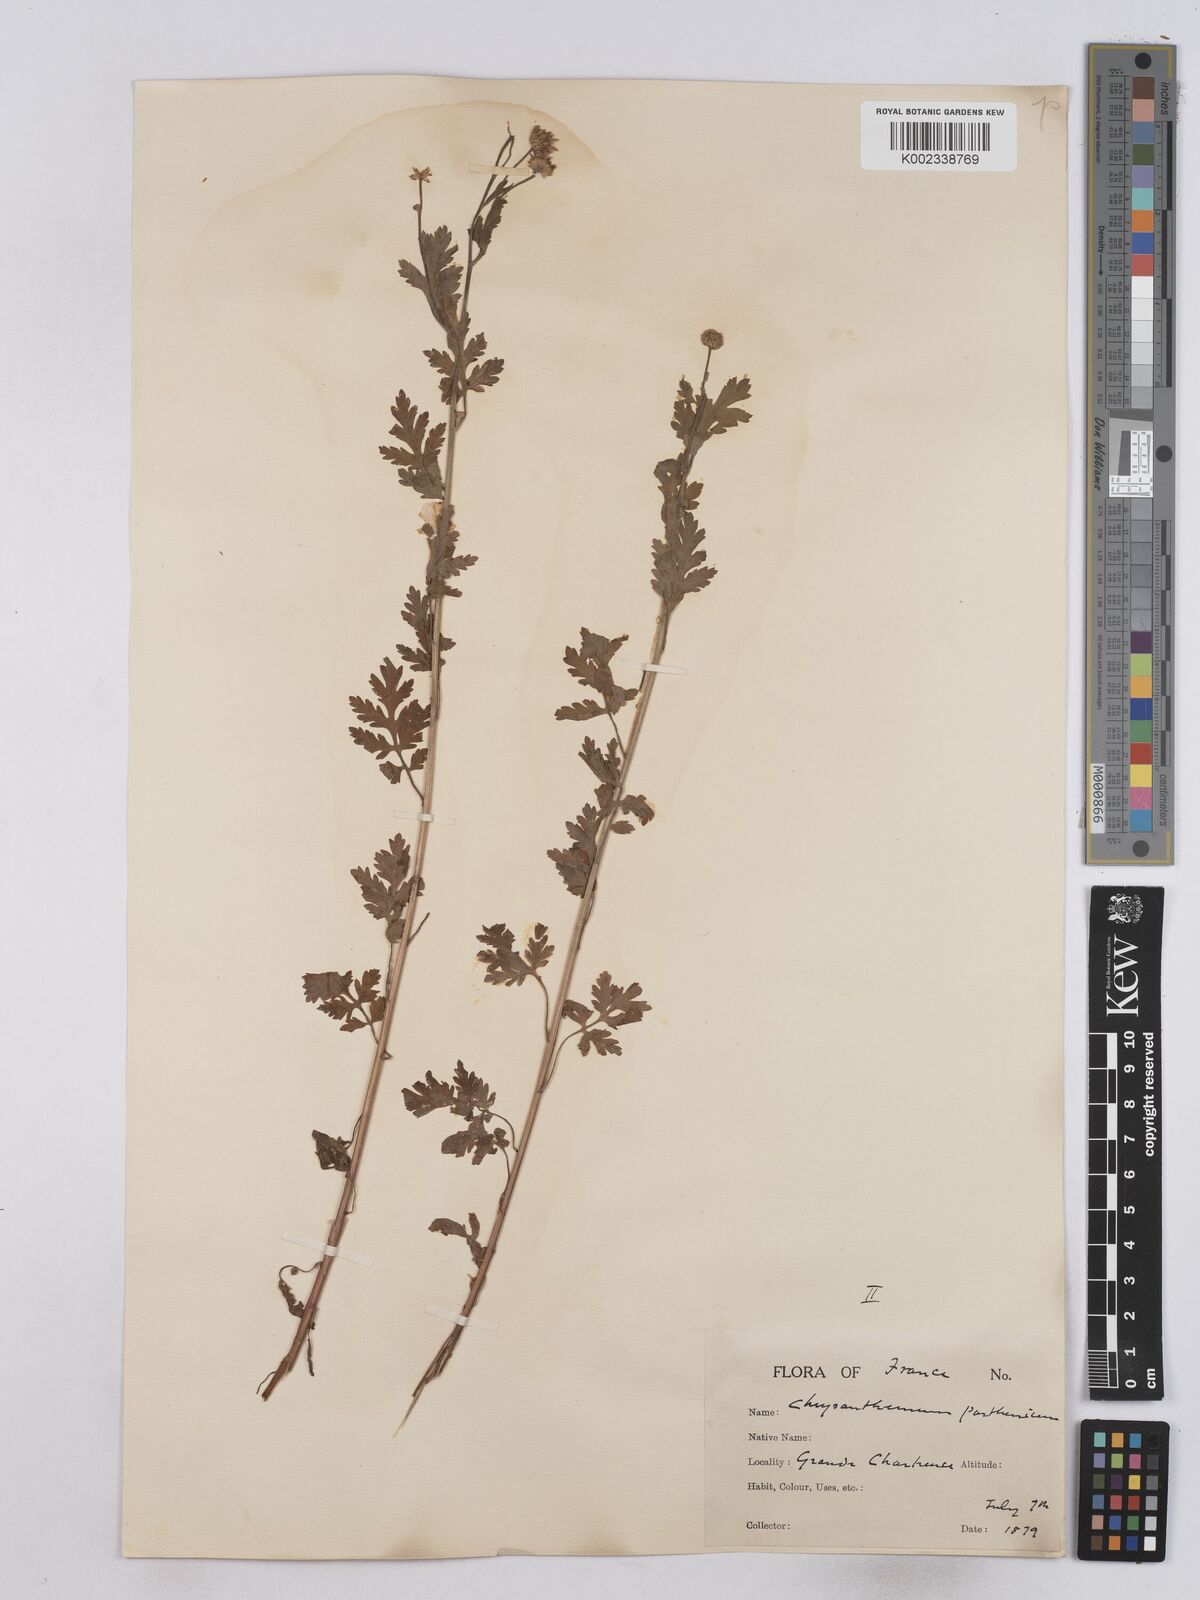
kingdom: Plantae
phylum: Tracheophyta
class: Magnoliopsida
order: Asterales
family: Asteraceae
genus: Tanacetum
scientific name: Tanacetum parthenium
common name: Feverfew
